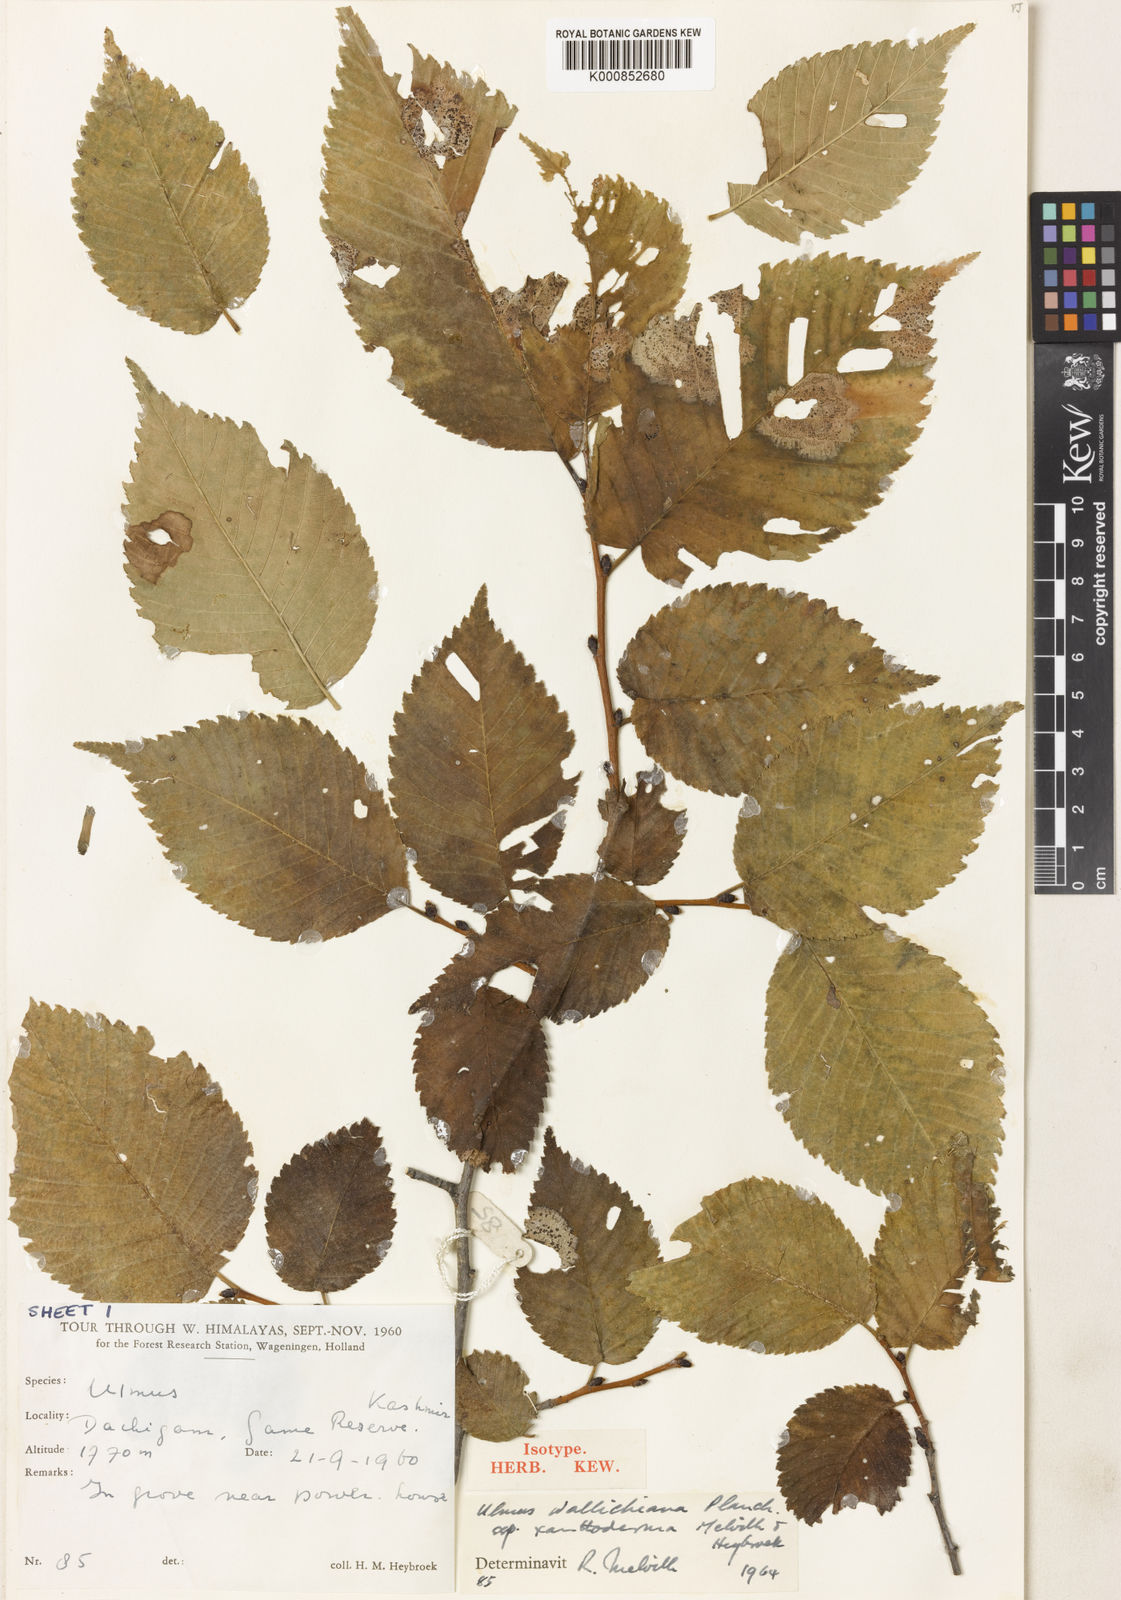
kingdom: Plantae
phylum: Tracheophyta
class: Magnoliopsida
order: Rosales
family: Ulmaceae
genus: Ulmus
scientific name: Ulmus wallichiana
